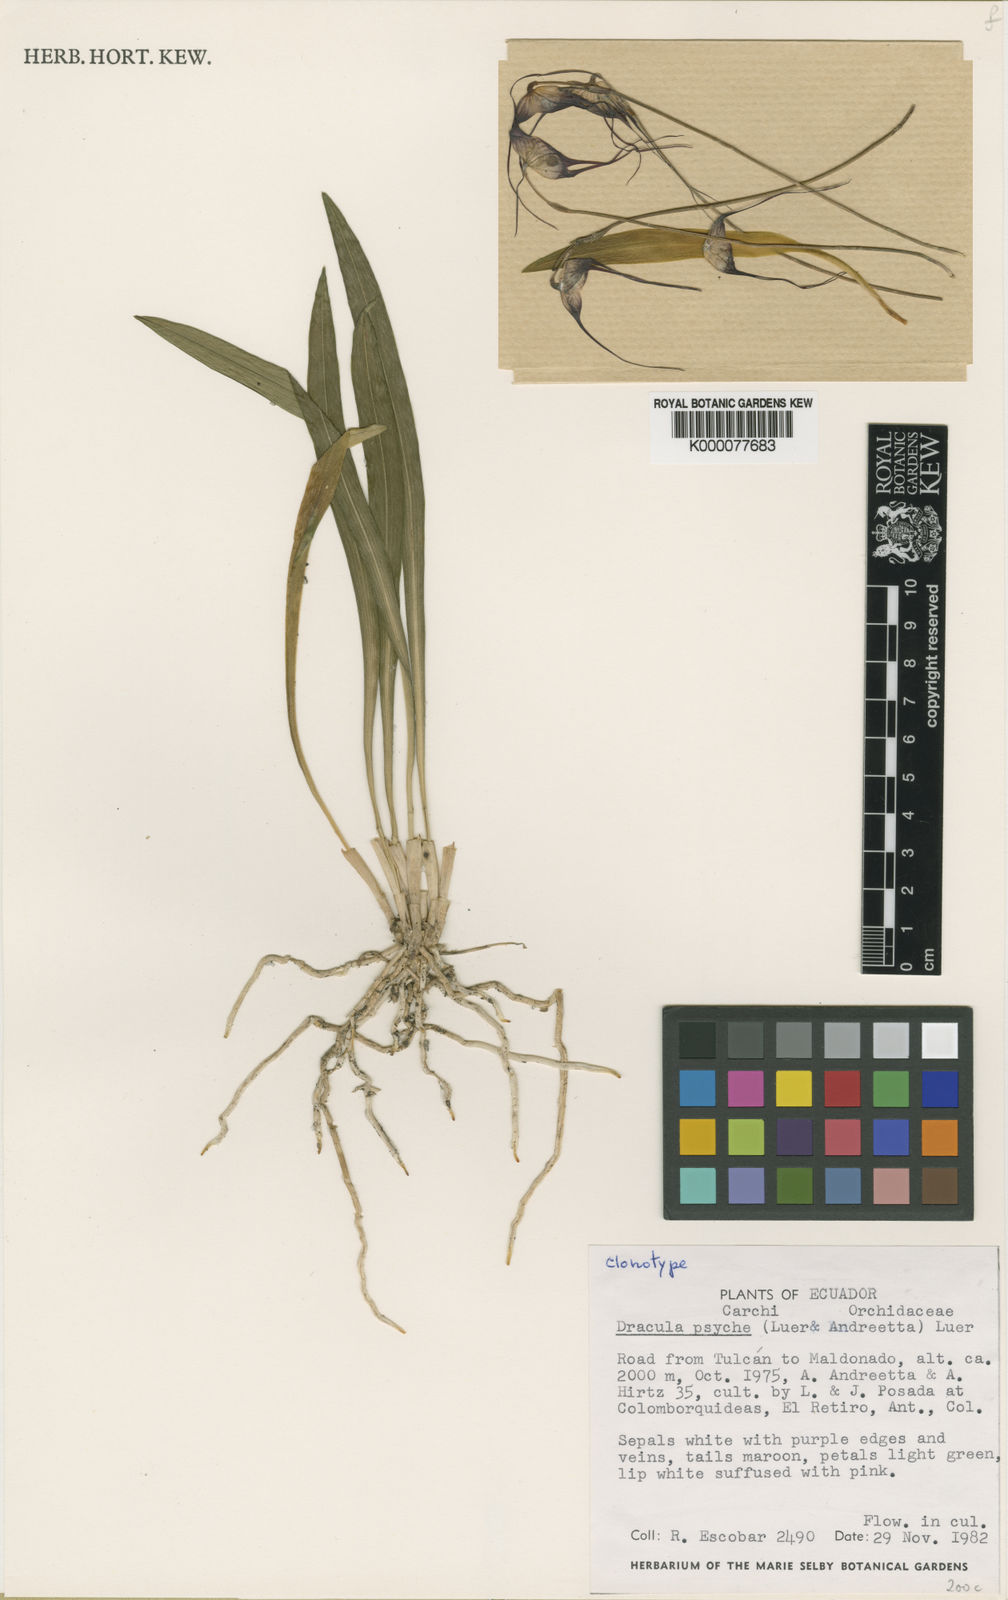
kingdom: Plantae
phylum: Tracheophyta
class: Liliopsida
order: Asparagales
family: Orchidaceae
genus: Dracula
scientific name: Dracula psyche
